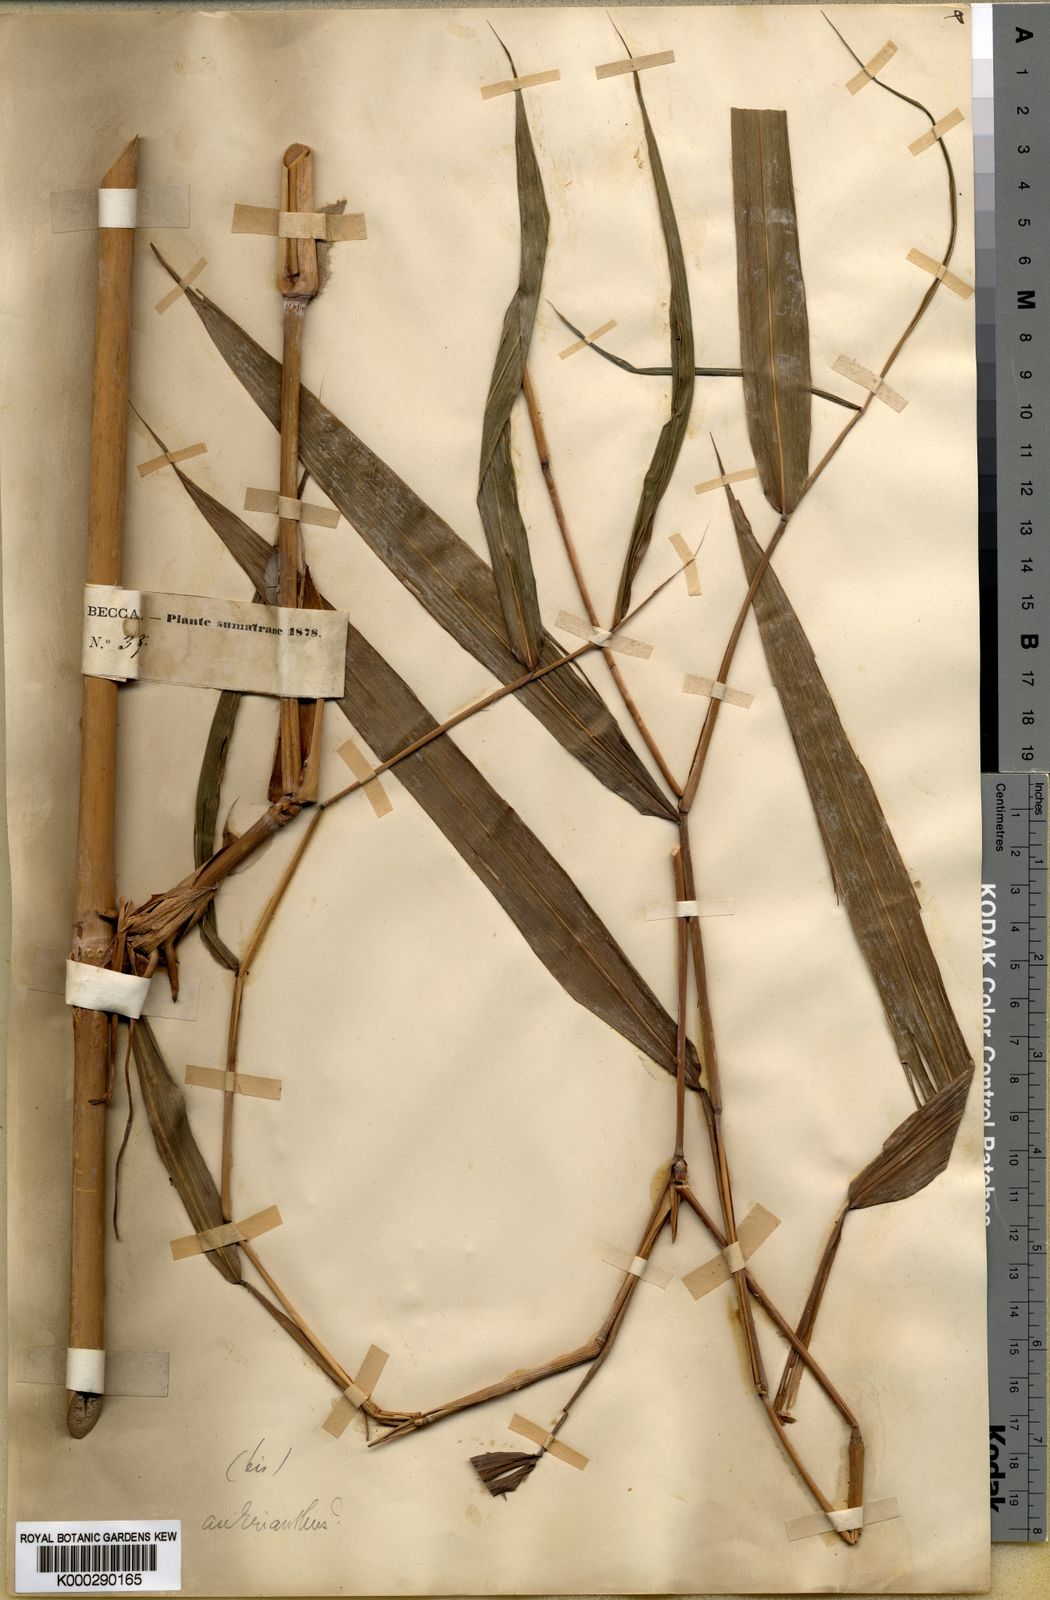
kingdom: Plantae
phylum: Tracheophyta
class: Liliopsida
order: Poales
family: Poaceae
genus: Saccharum
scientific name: Saccharum beccarii
